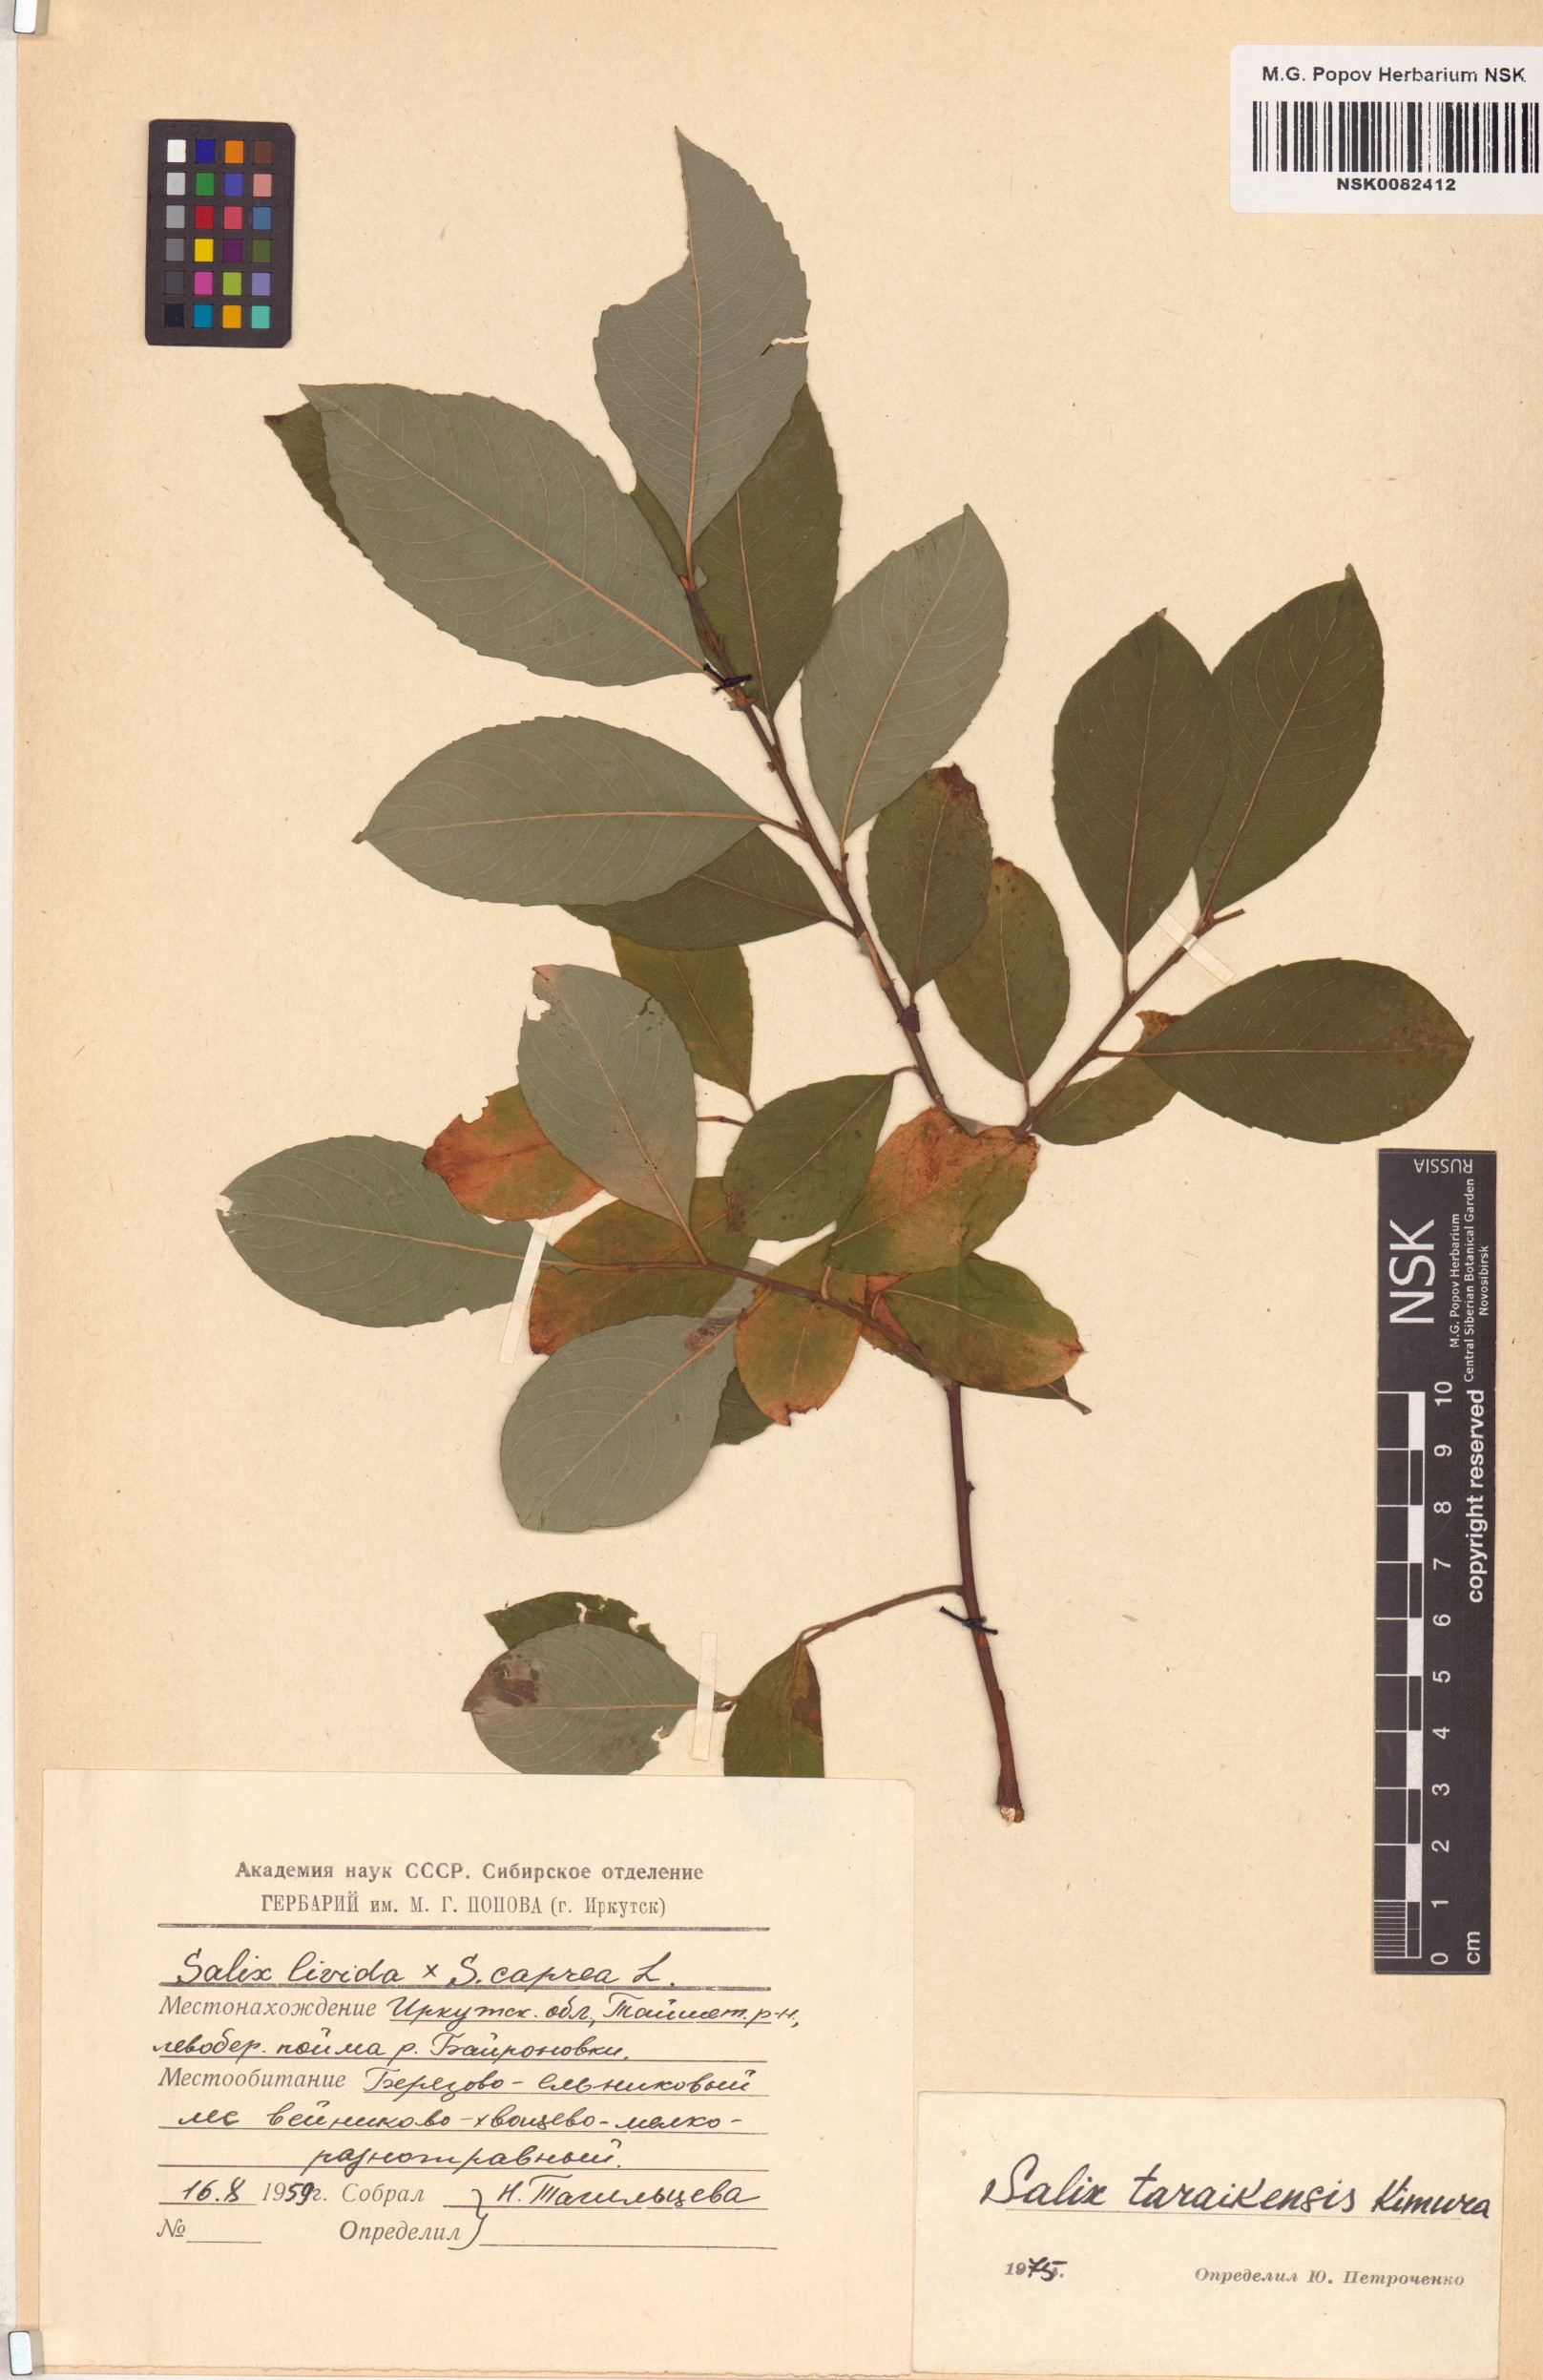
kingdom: Plantae
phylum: Tracheophyta
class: Magnoliopsida
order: Malpighiales
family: Salicaceae
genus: Salix
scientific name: Salix taraikensis
